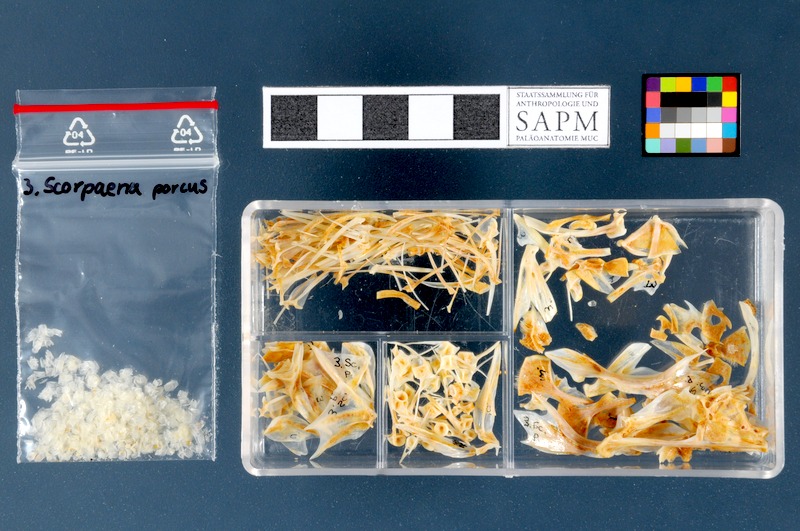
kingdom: Animalia
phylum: Chordata
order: Scorpaeniformes
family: Scorpaenidae
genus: Scorpaena
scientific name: Scorpaena porcus
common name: Black scorpionfish
